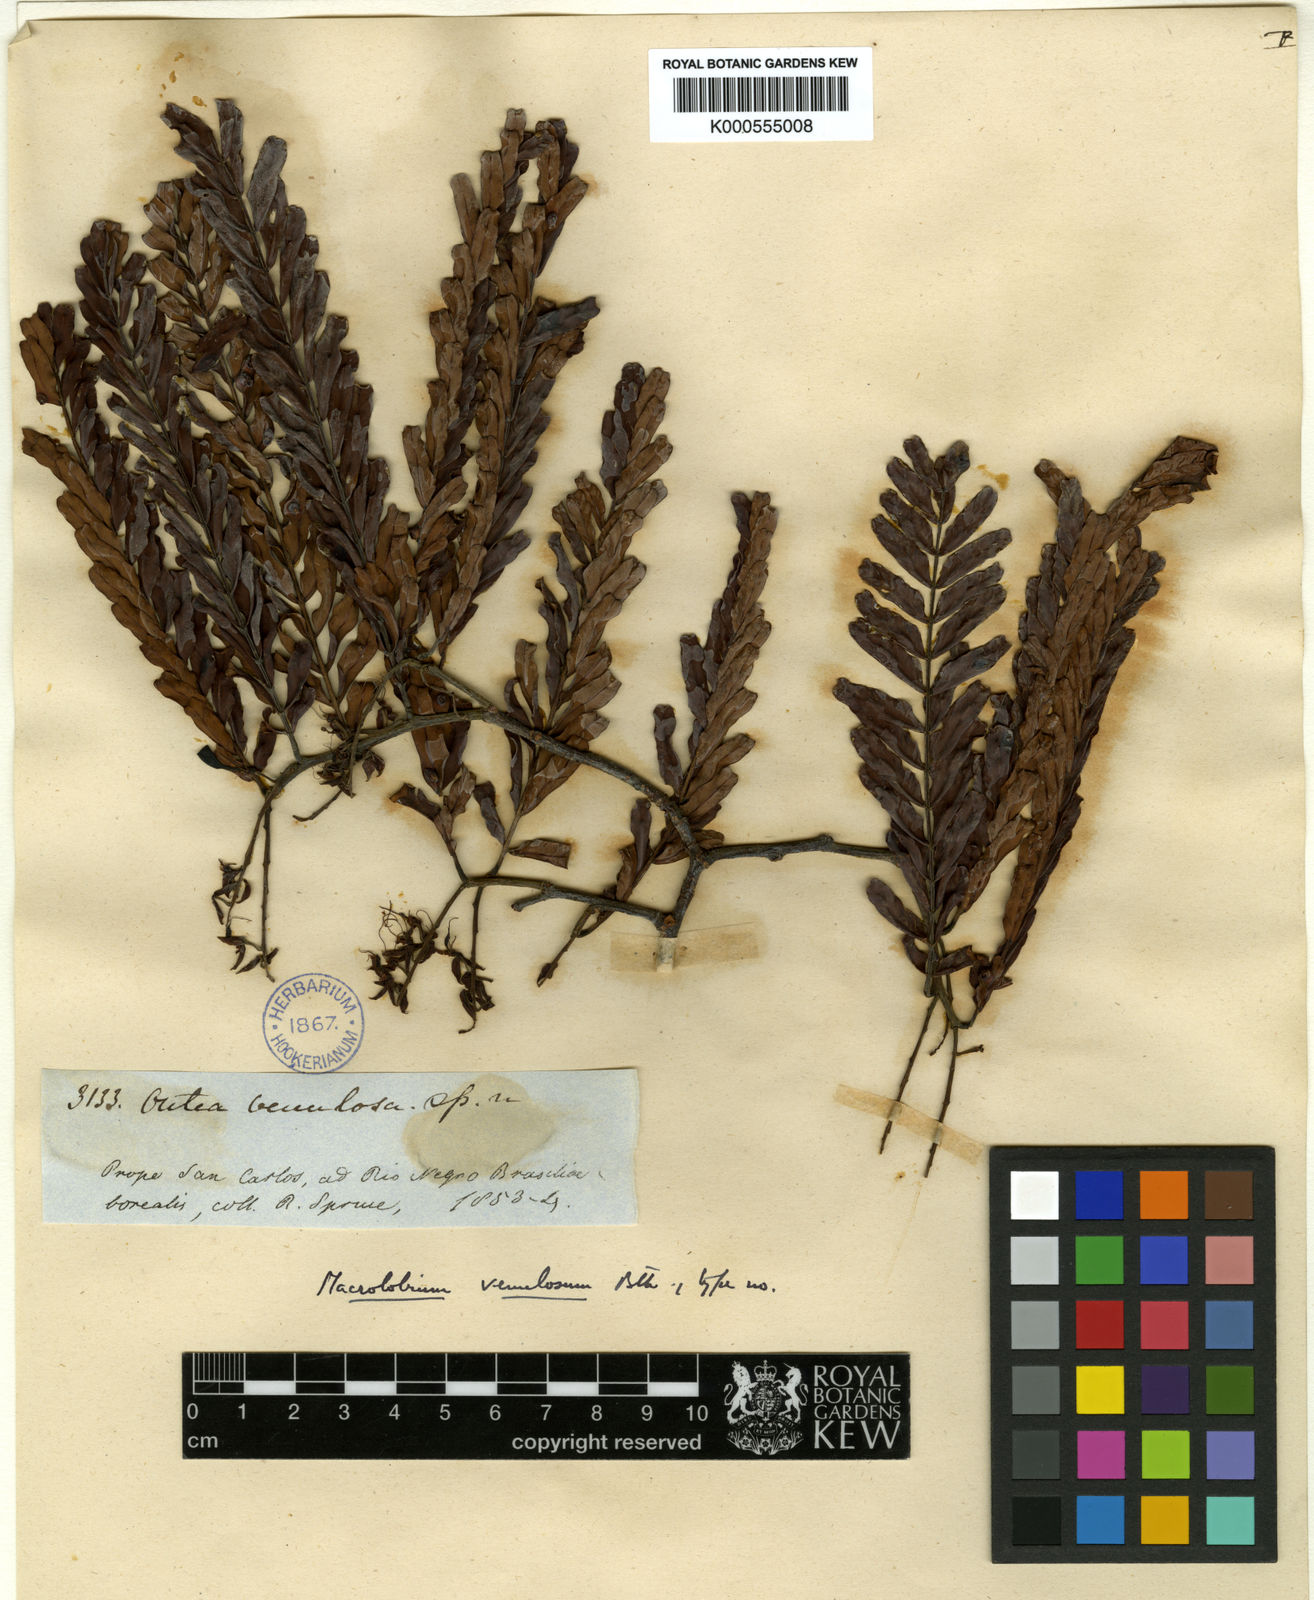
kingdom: Plantae
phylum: Tracheophyta
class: Magnoliopsida
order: Fabales
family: Fabaceae
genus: Macrolobium
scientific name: Macrolobium venulosum
